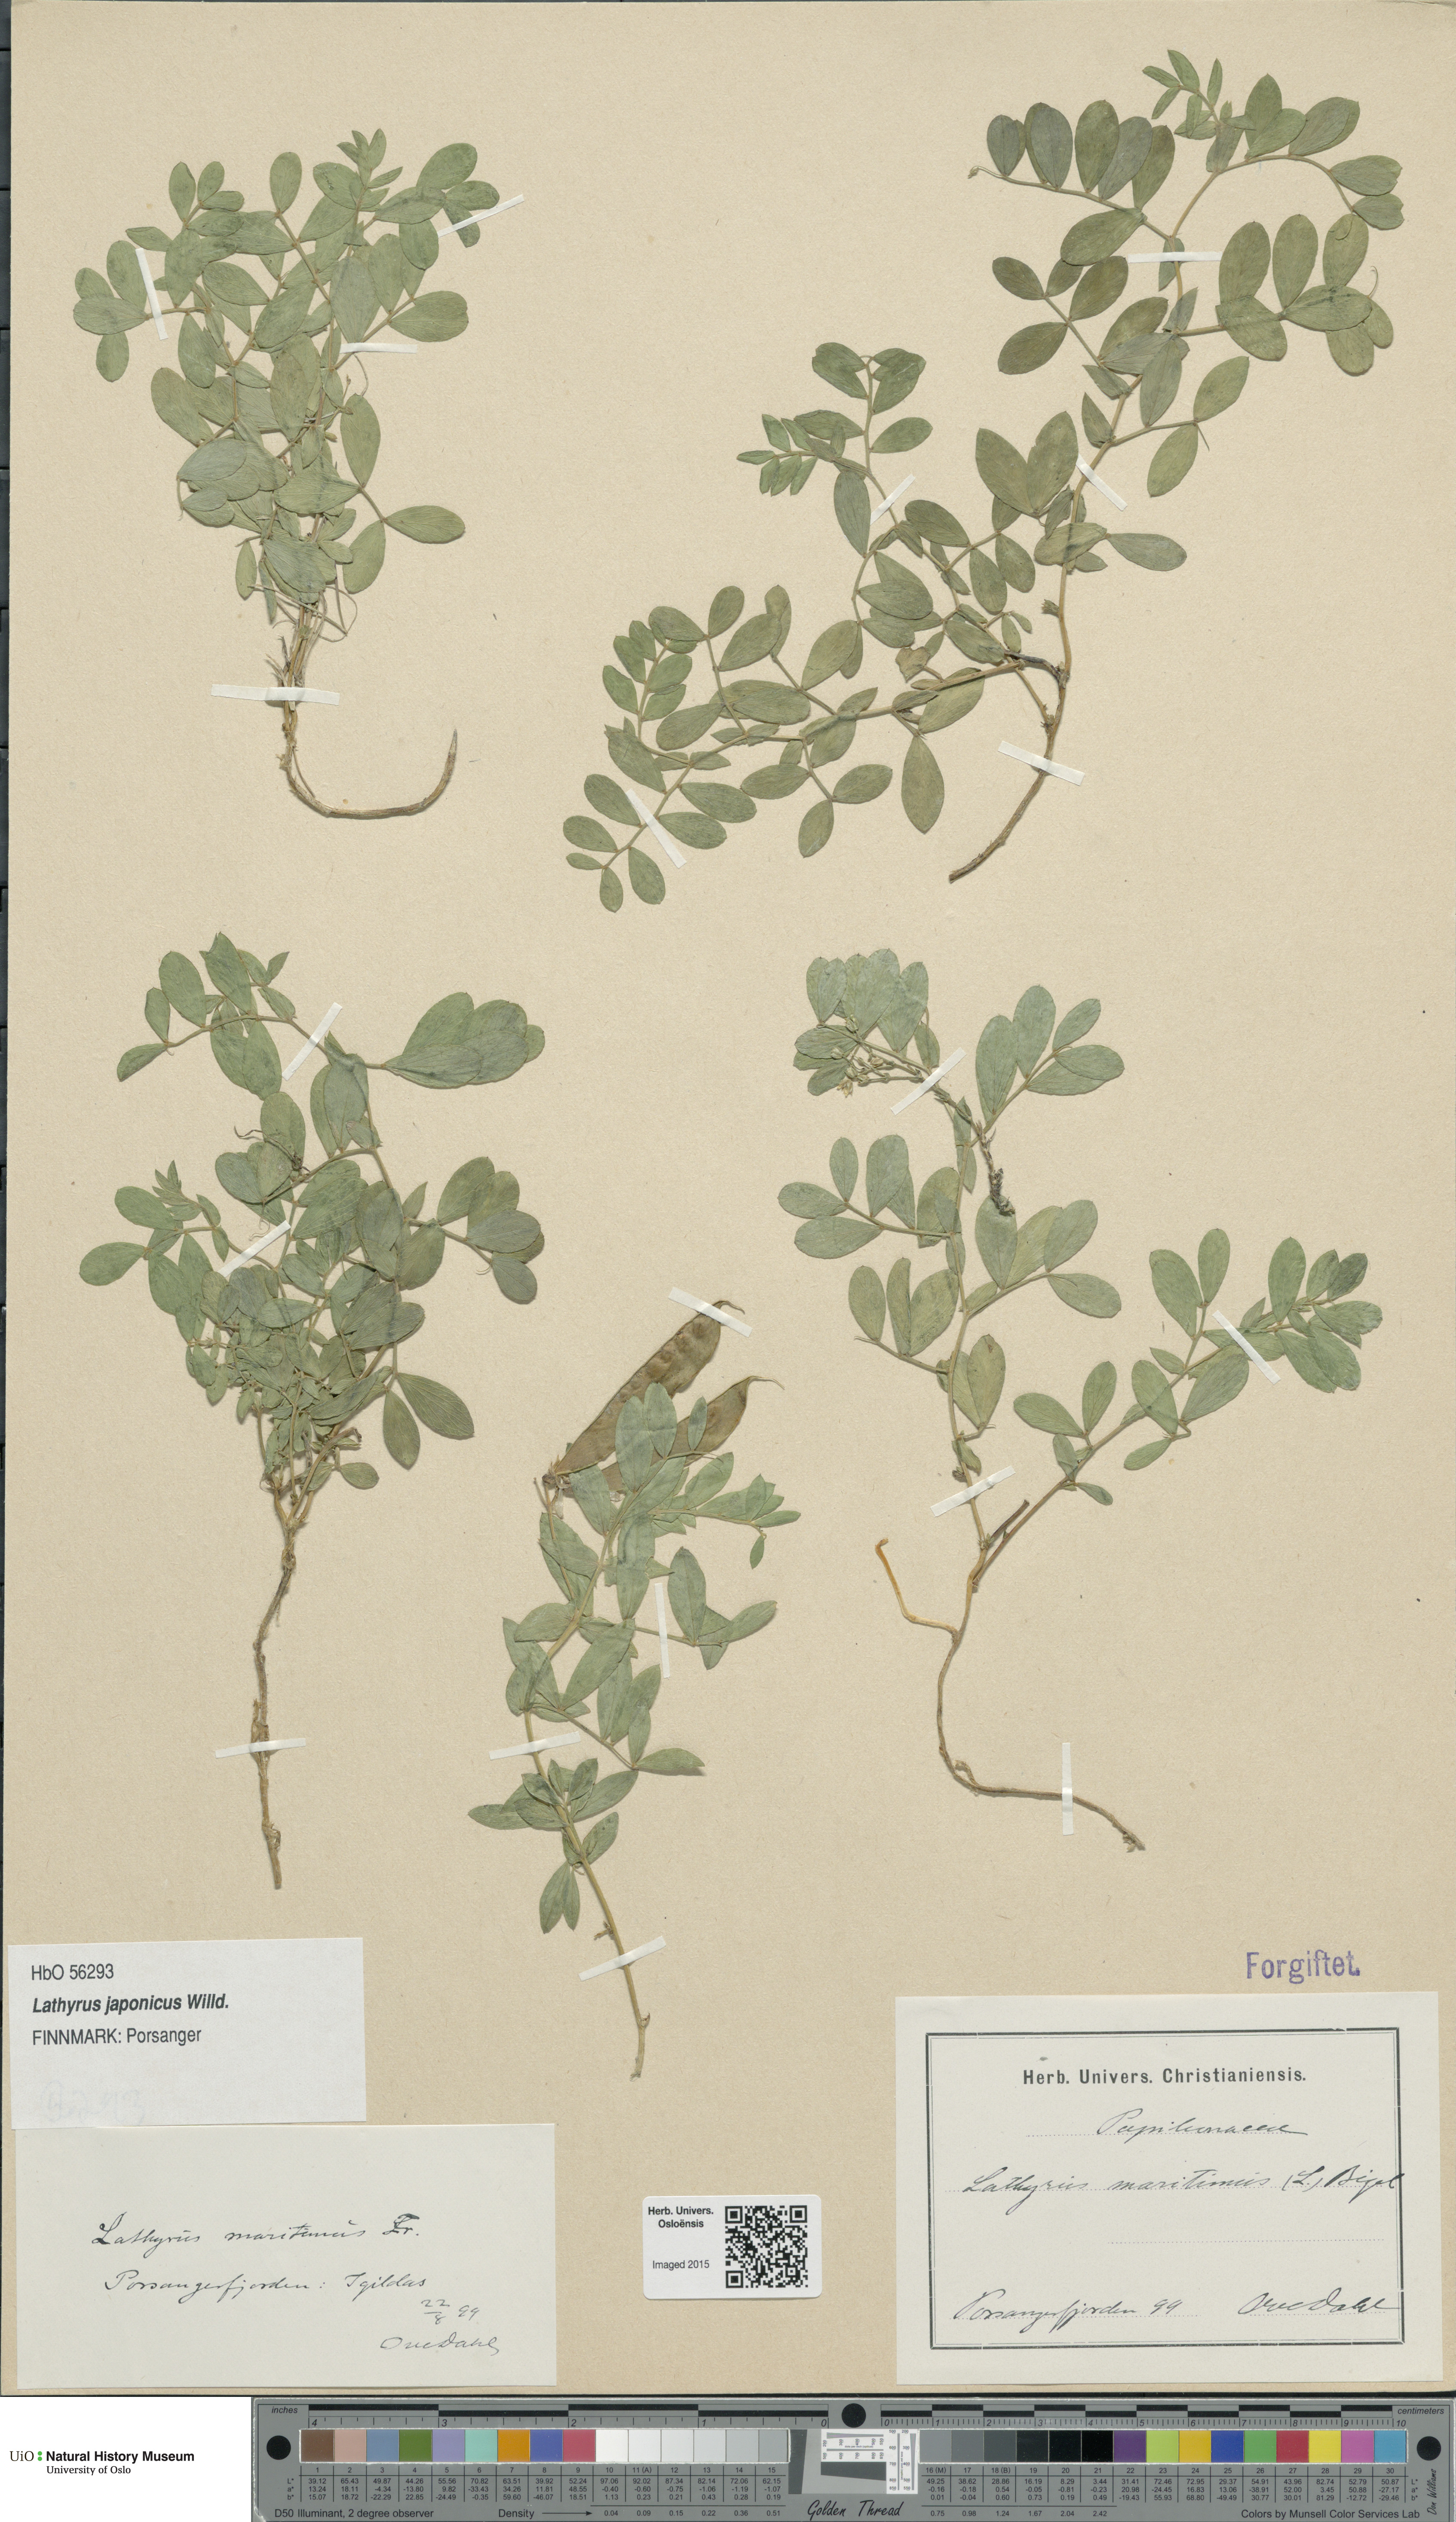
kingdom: Plantae
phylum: Tracheophyta
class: Magnoliopsida
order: Fabales
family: Fabaceae
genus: Lathyrus
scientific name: Lathyrus
